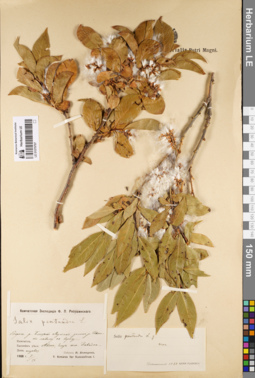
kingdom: Plantae
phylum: Tracheophyta
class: Magnoliopsida
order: Malpighiales
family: Salicaceae
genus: Salix
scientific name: Salix pseudopentandra
